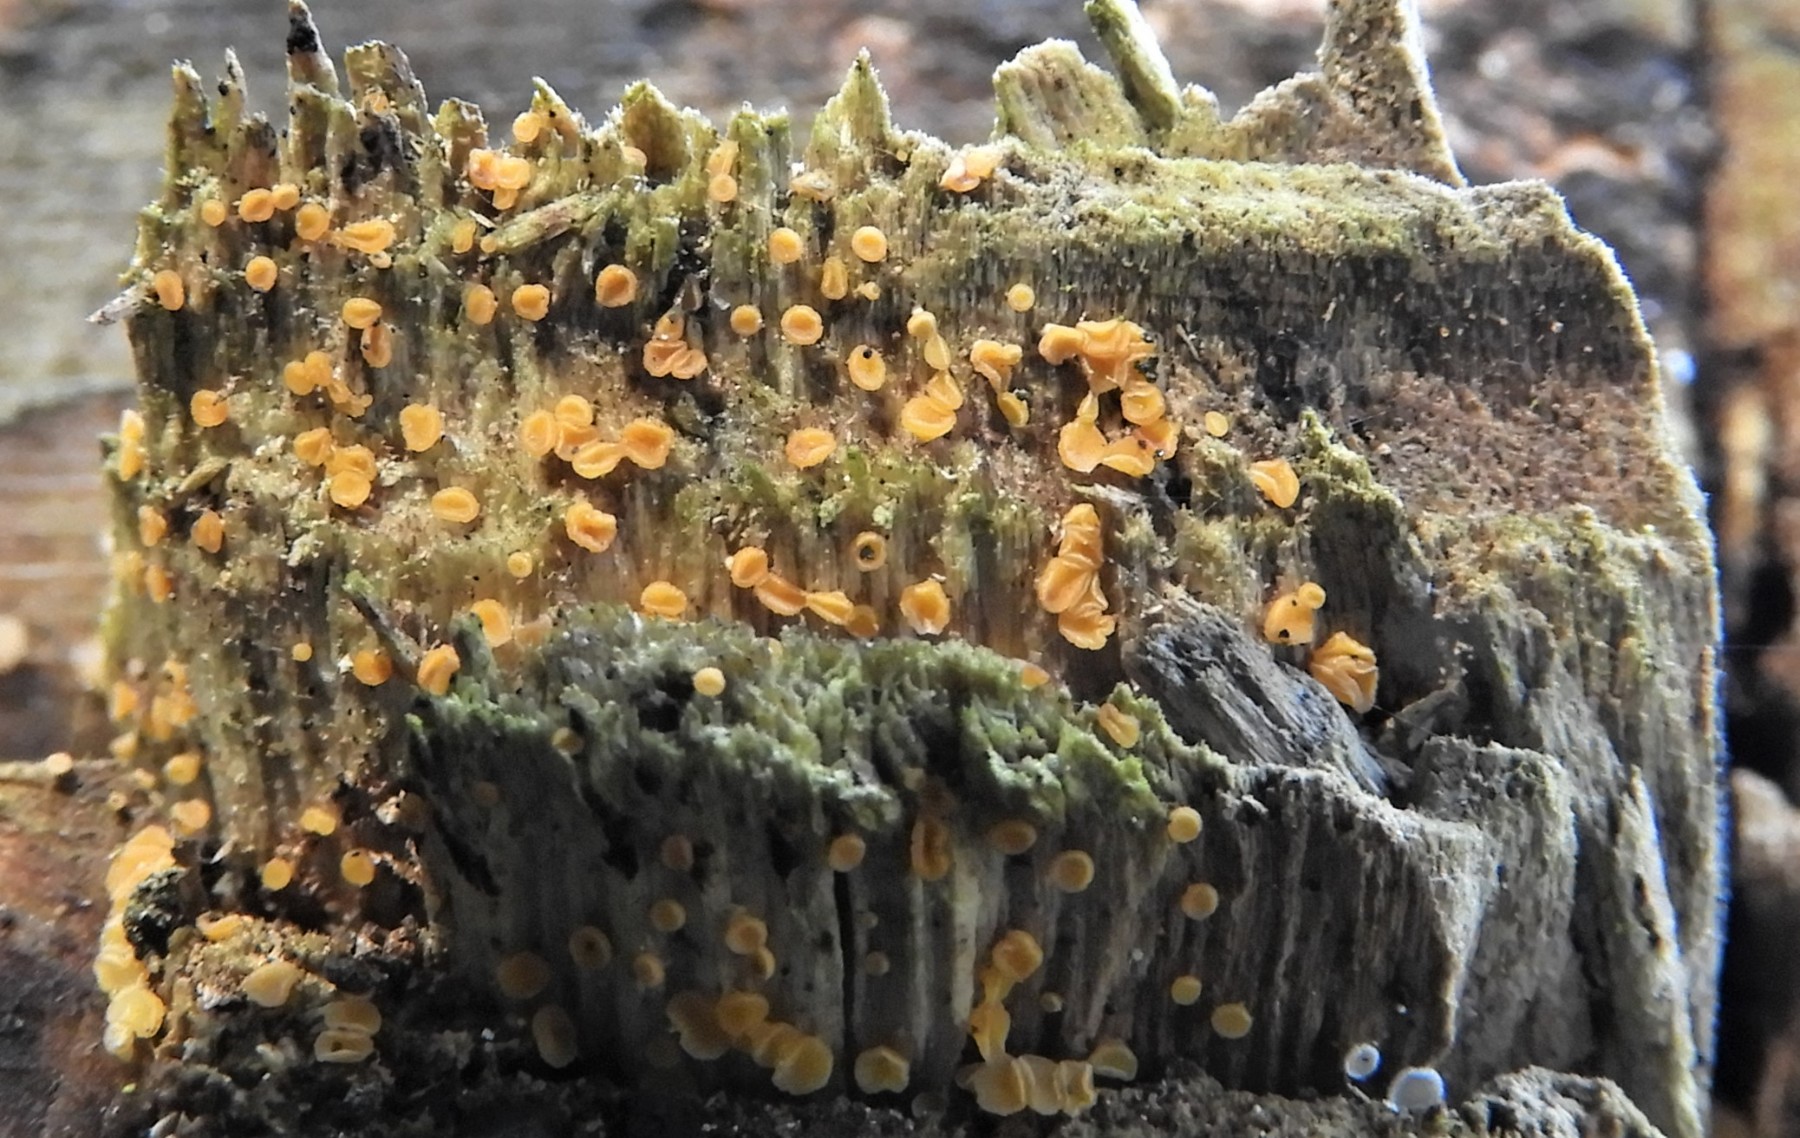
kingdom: Fungi
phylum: Ascomycota
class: Leotiomycetes
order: Helotiales
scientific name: Helotiales
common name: stilkskiveordenen
